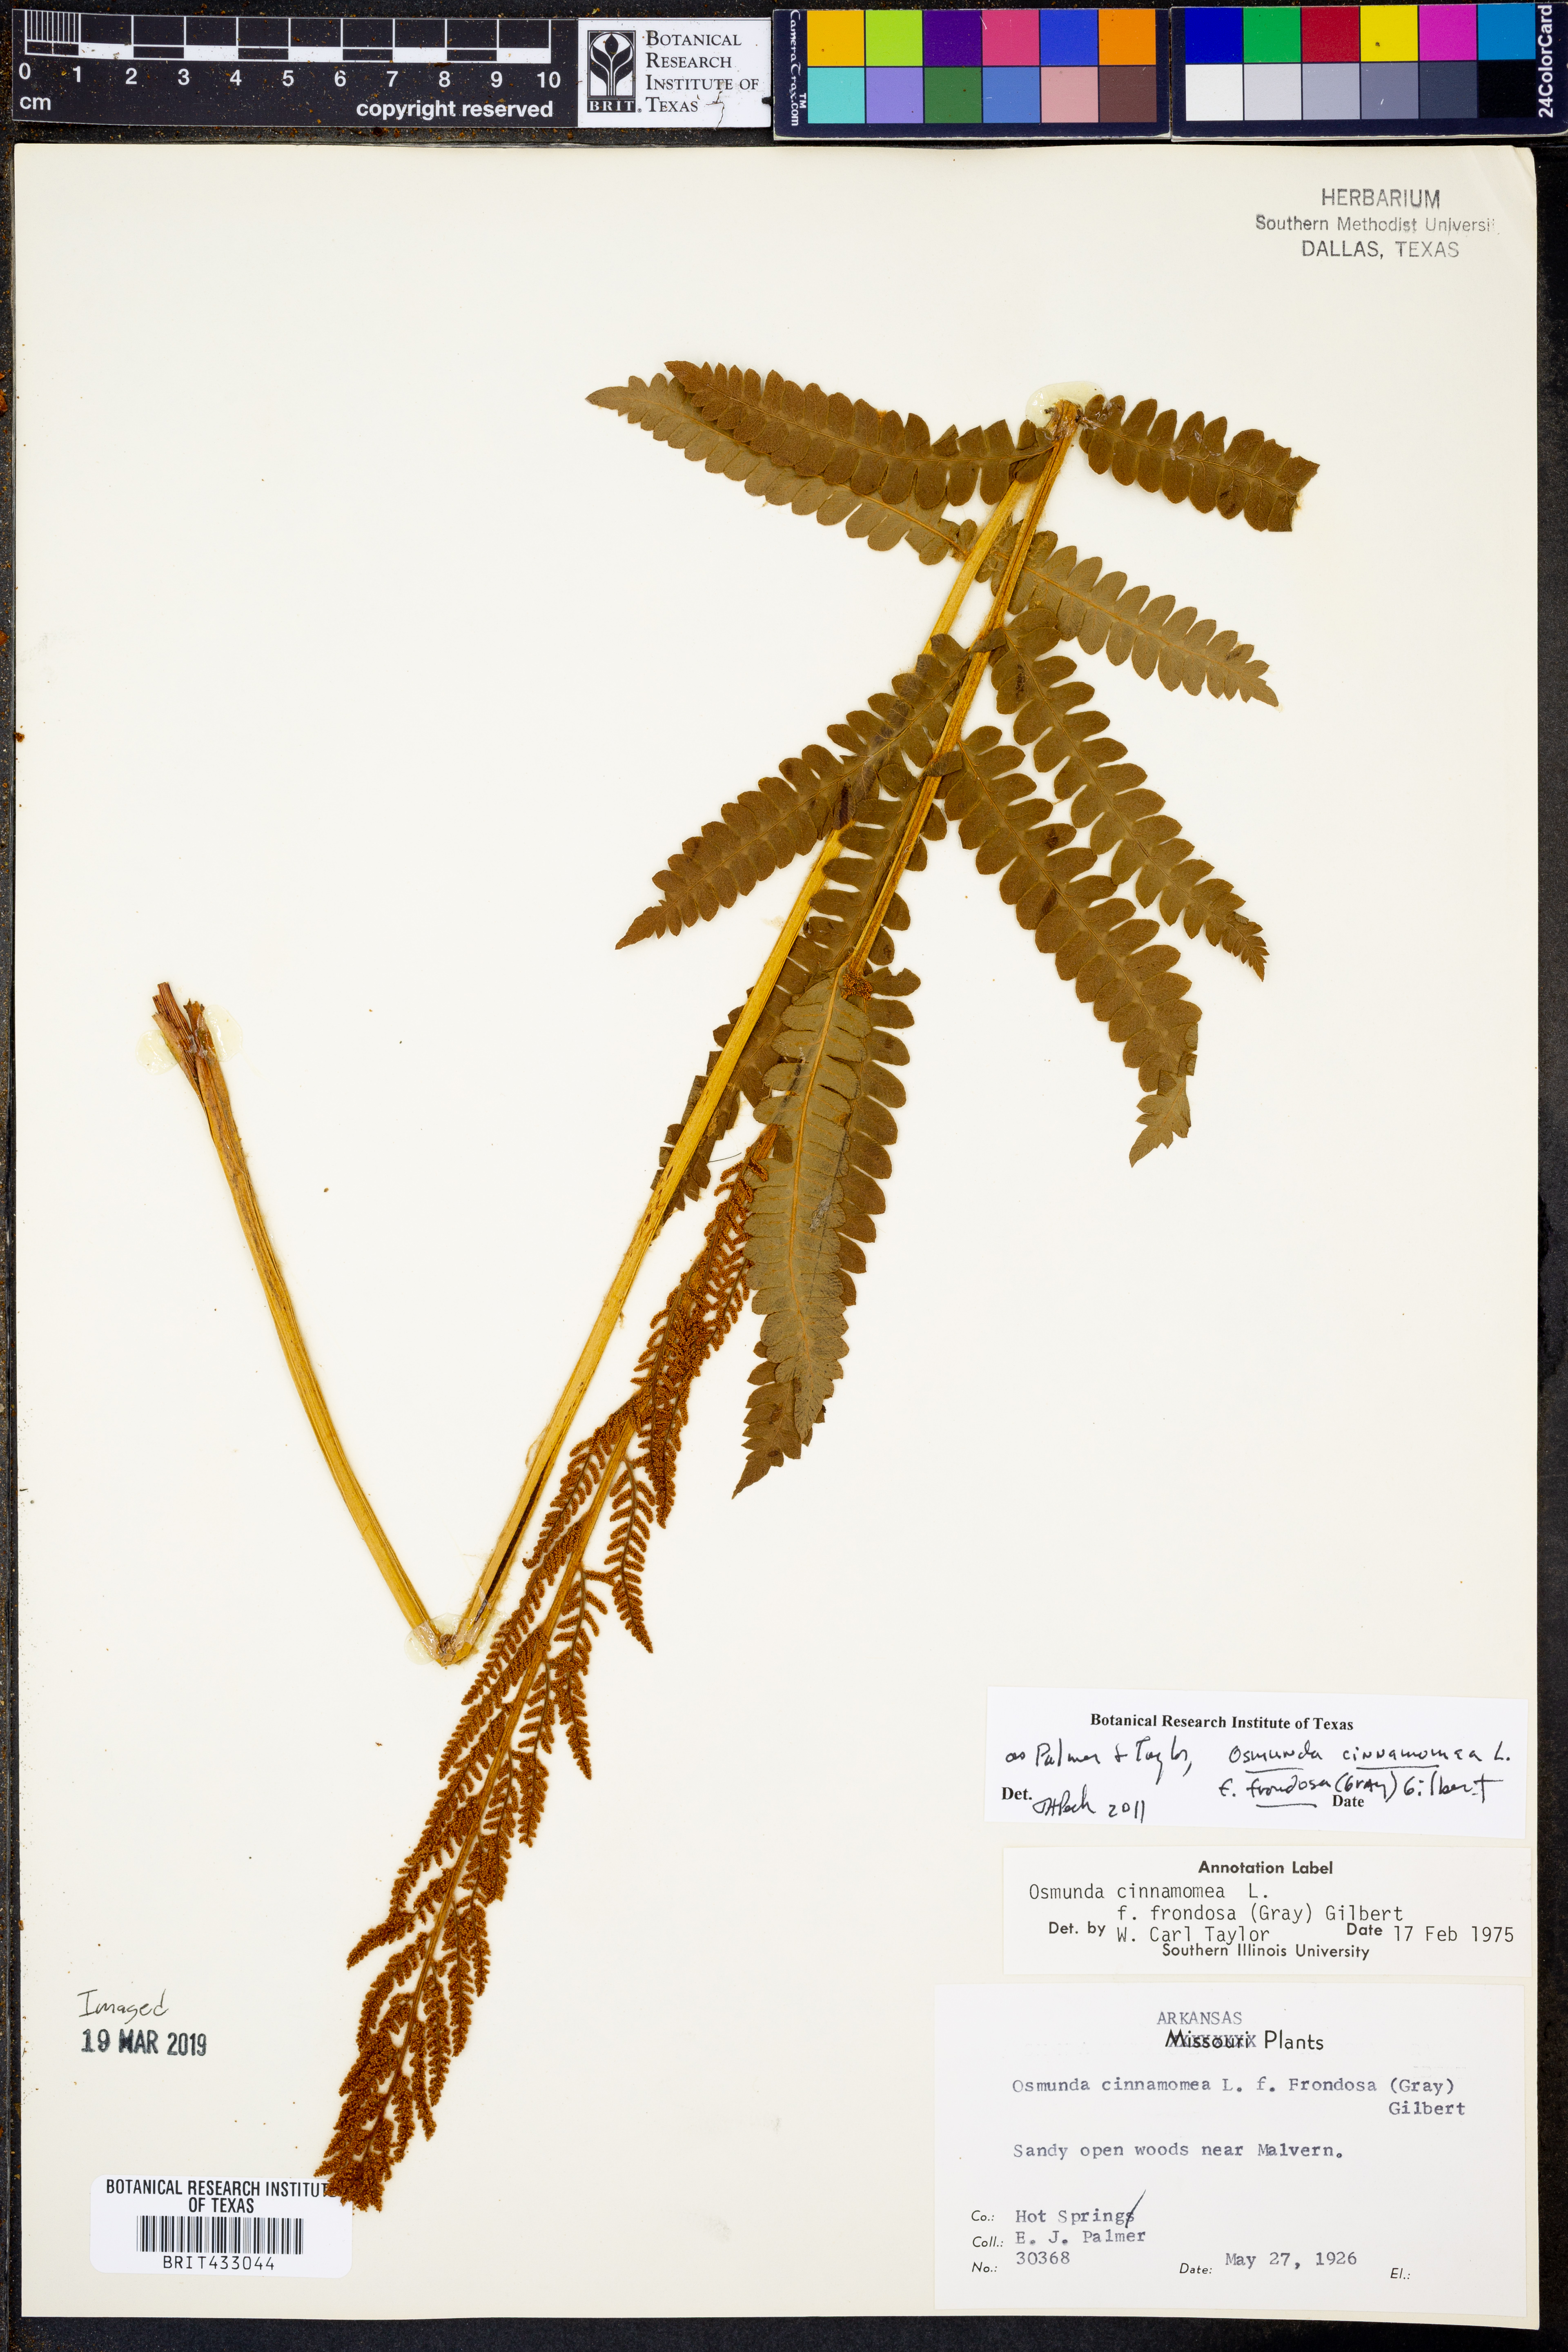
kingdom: Plantae
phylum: Tracheophyta
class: Polypodiopsida
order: Osmundales
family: Osmundaceae
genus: Osmundastrum
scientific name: Osmundastrum cinnamomeum
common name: Cinnamon fern
